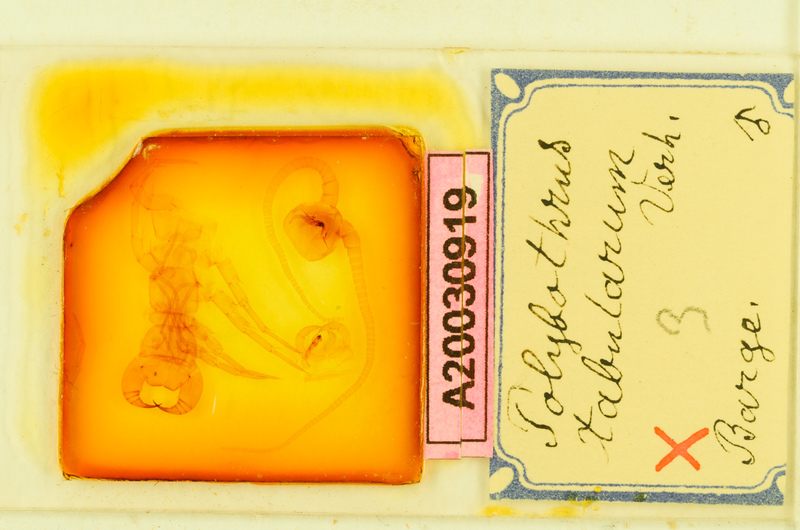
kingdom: Animalia
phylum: Arthropoda
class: Chilopoda
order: Lithobiomorpha
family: Lithobiidae
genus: Polybothrus
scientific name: Polybothrus tabularum
